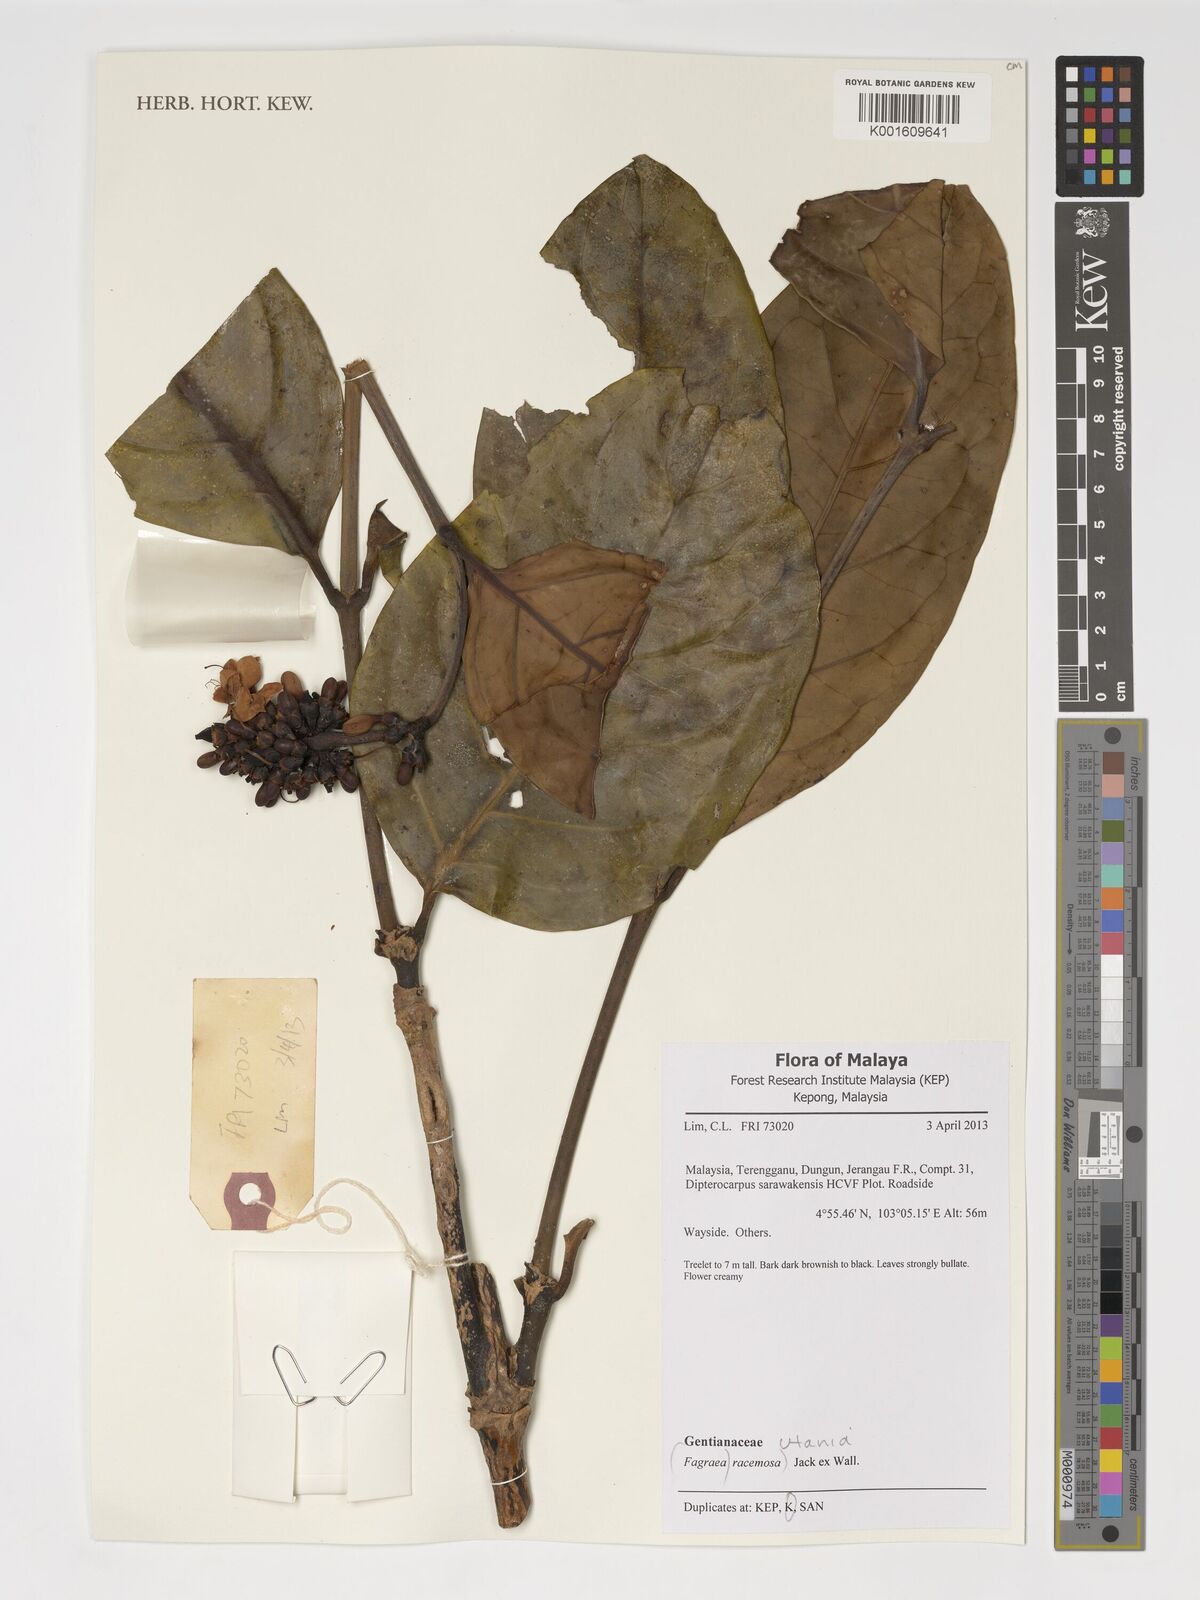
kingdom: Plantae
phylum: Tracheophyta
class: Magnoliopsida
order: Gentianales
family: Gentianaceae
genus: Utania
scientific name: Utania racemosa
